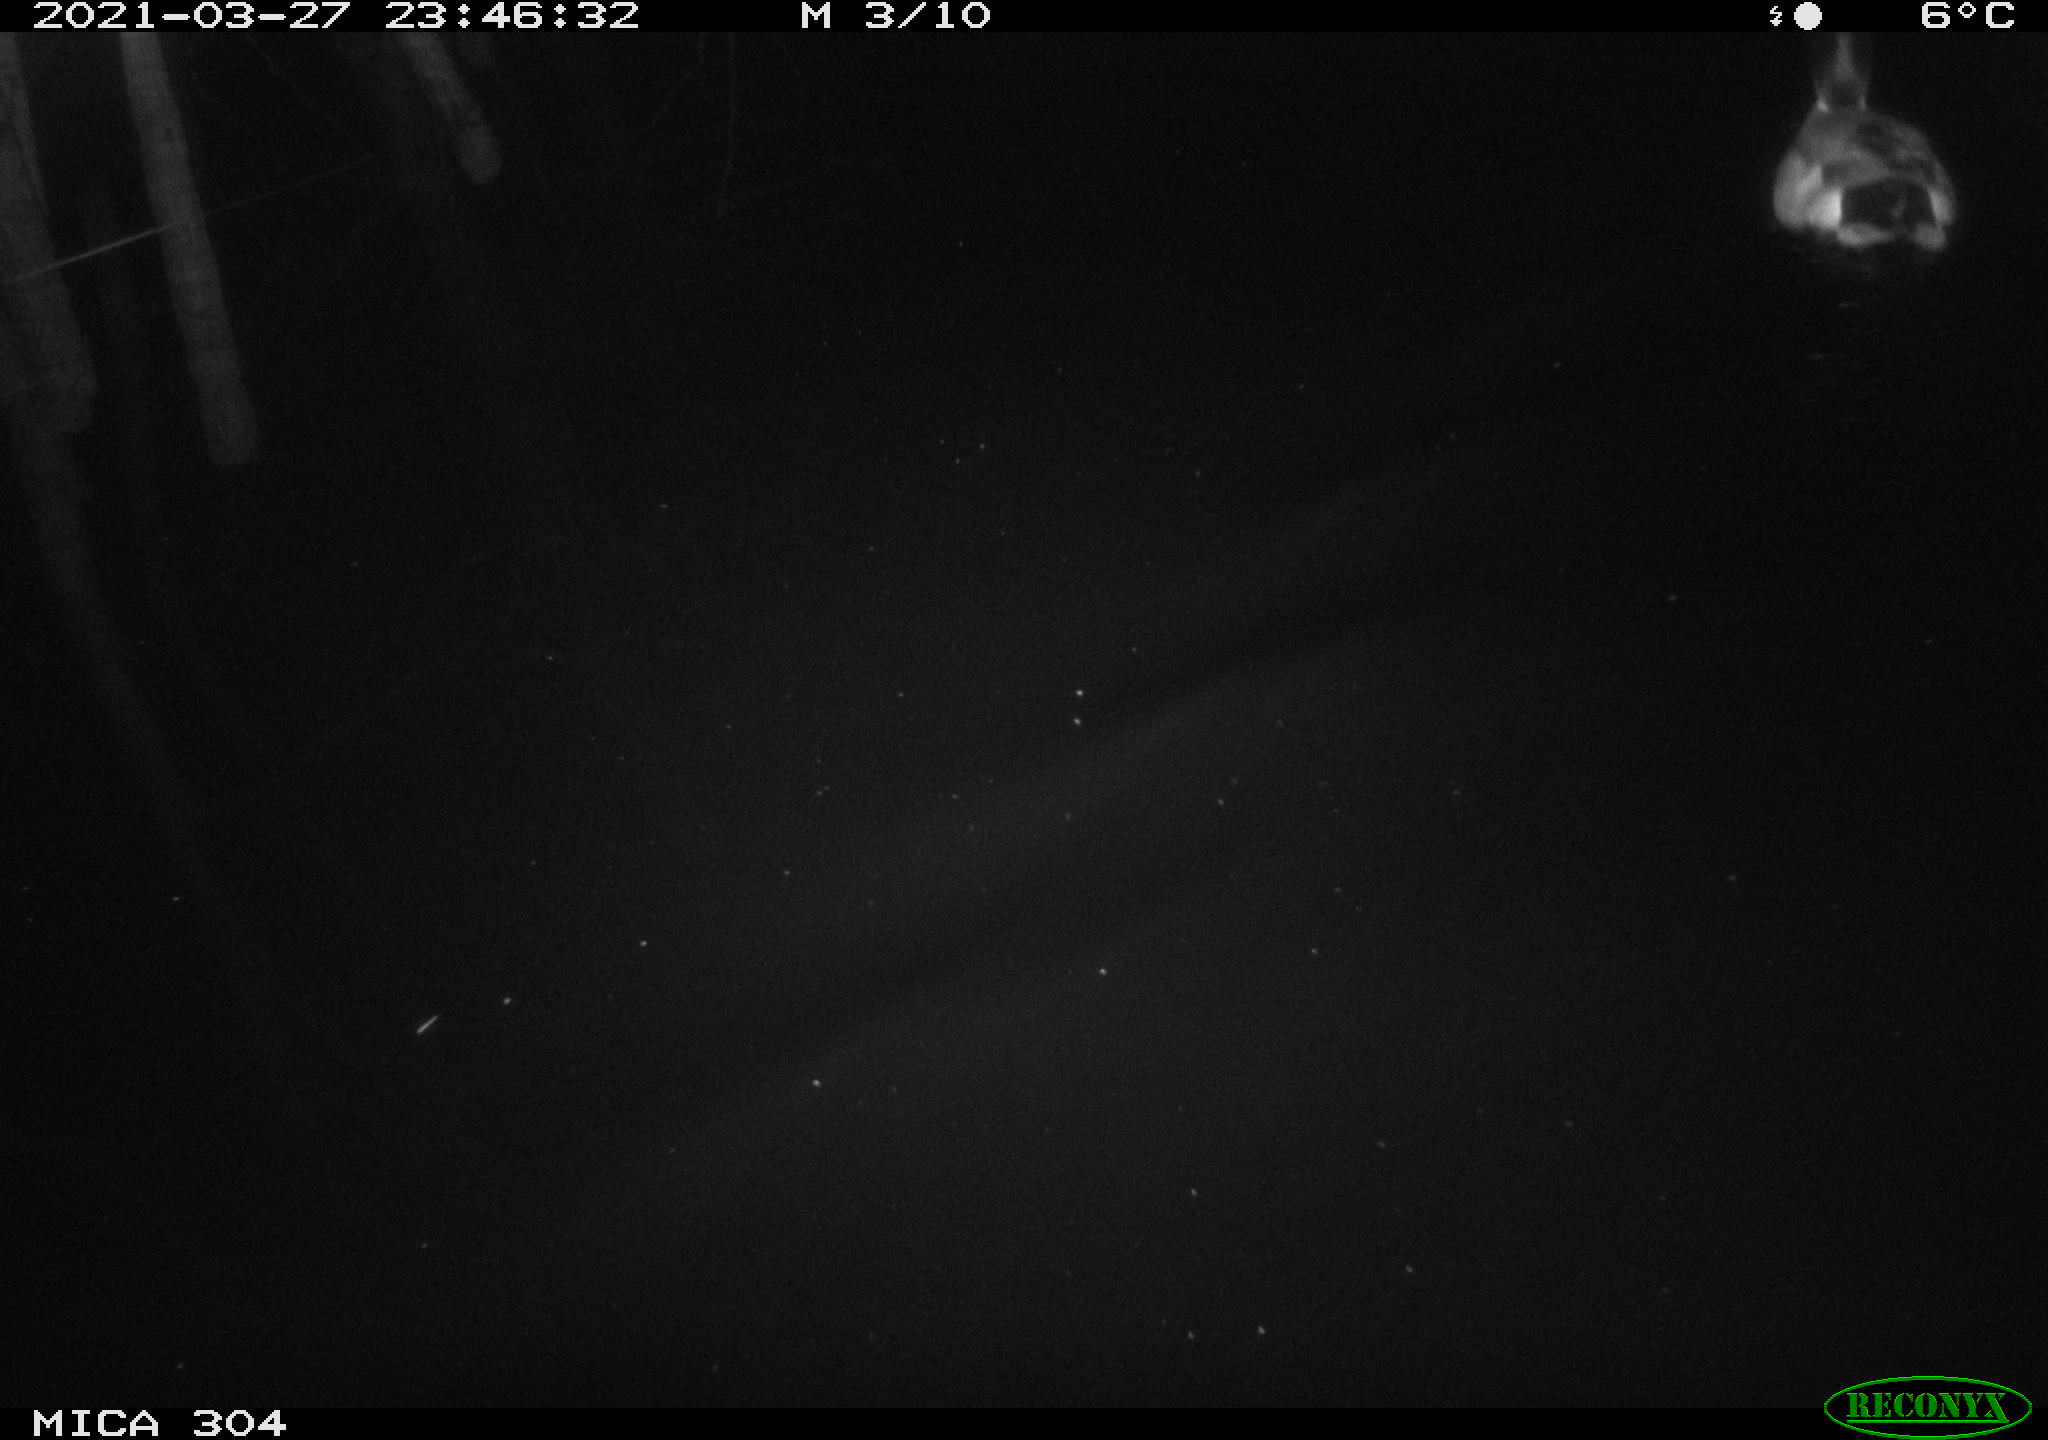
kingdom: Animalia
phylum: Chordata
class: Aves
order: Anseriformes
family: Anatidae
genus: Anas
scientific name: Anas platyrhynchos
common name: Mallard
